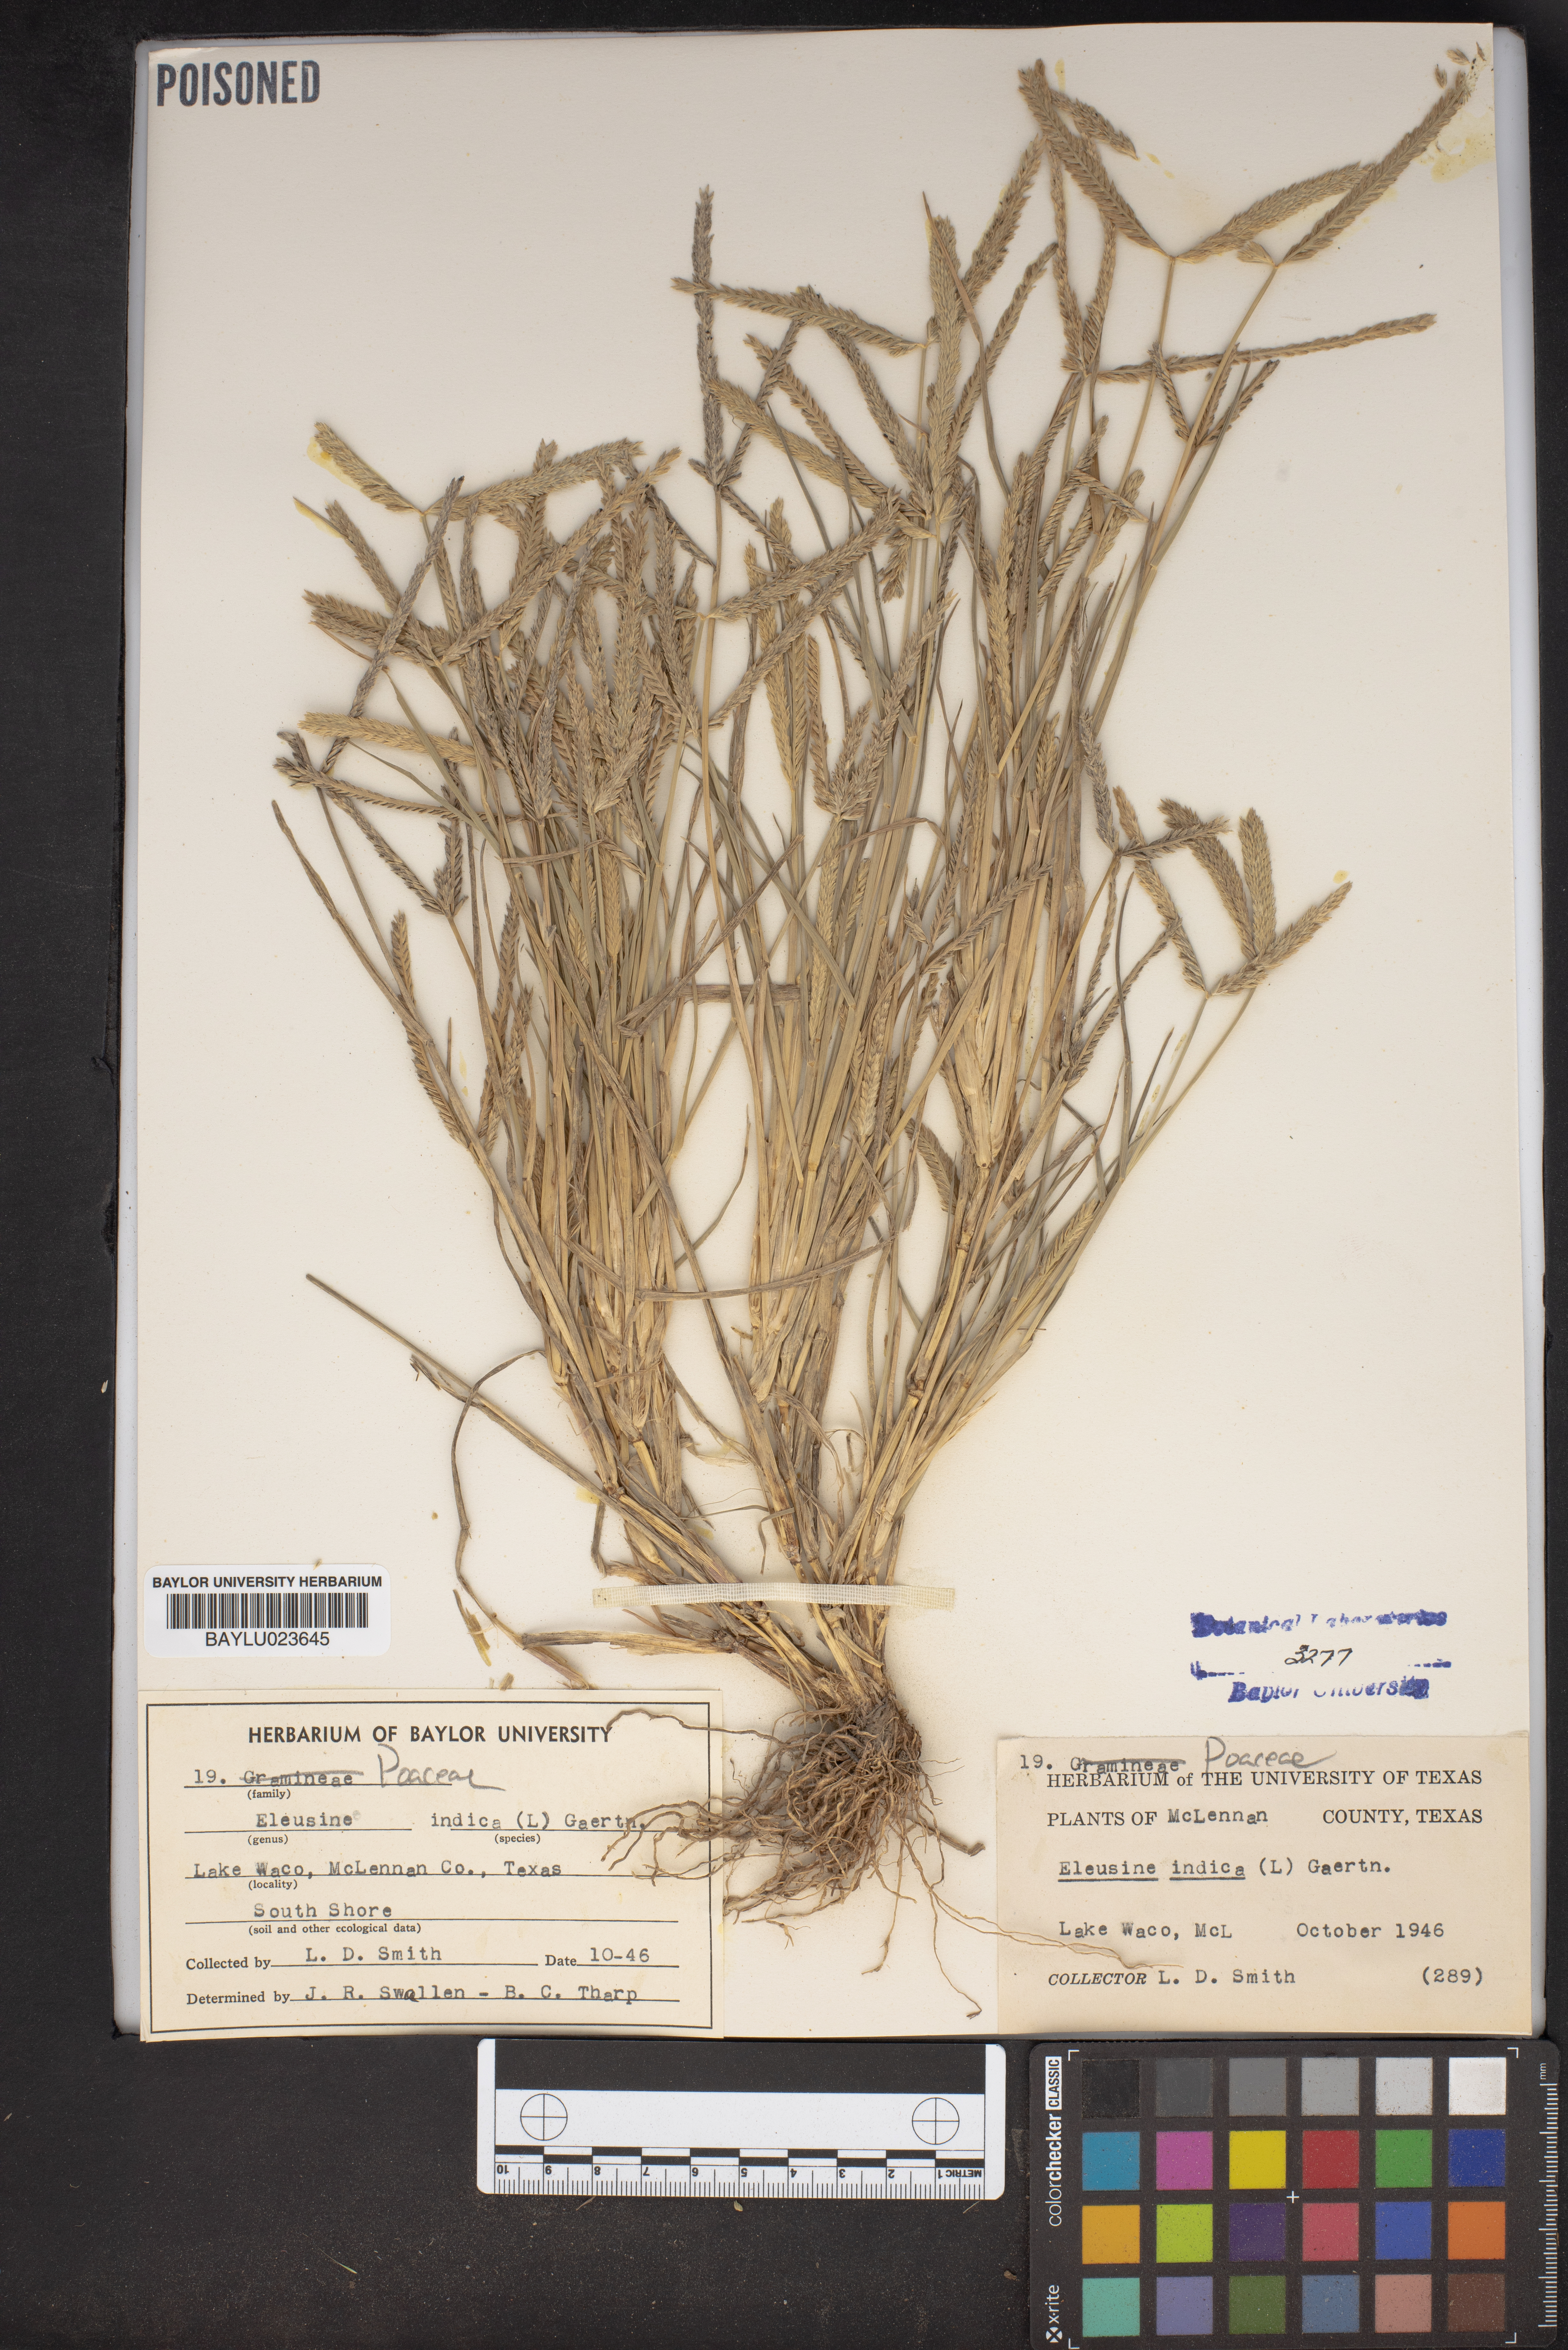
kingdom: Plantae
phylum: Tracheophyta
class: Liliopsida
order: Poales
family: Poaceae
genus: Eleusine
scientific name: Eleusine indica
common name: Yard-grass
